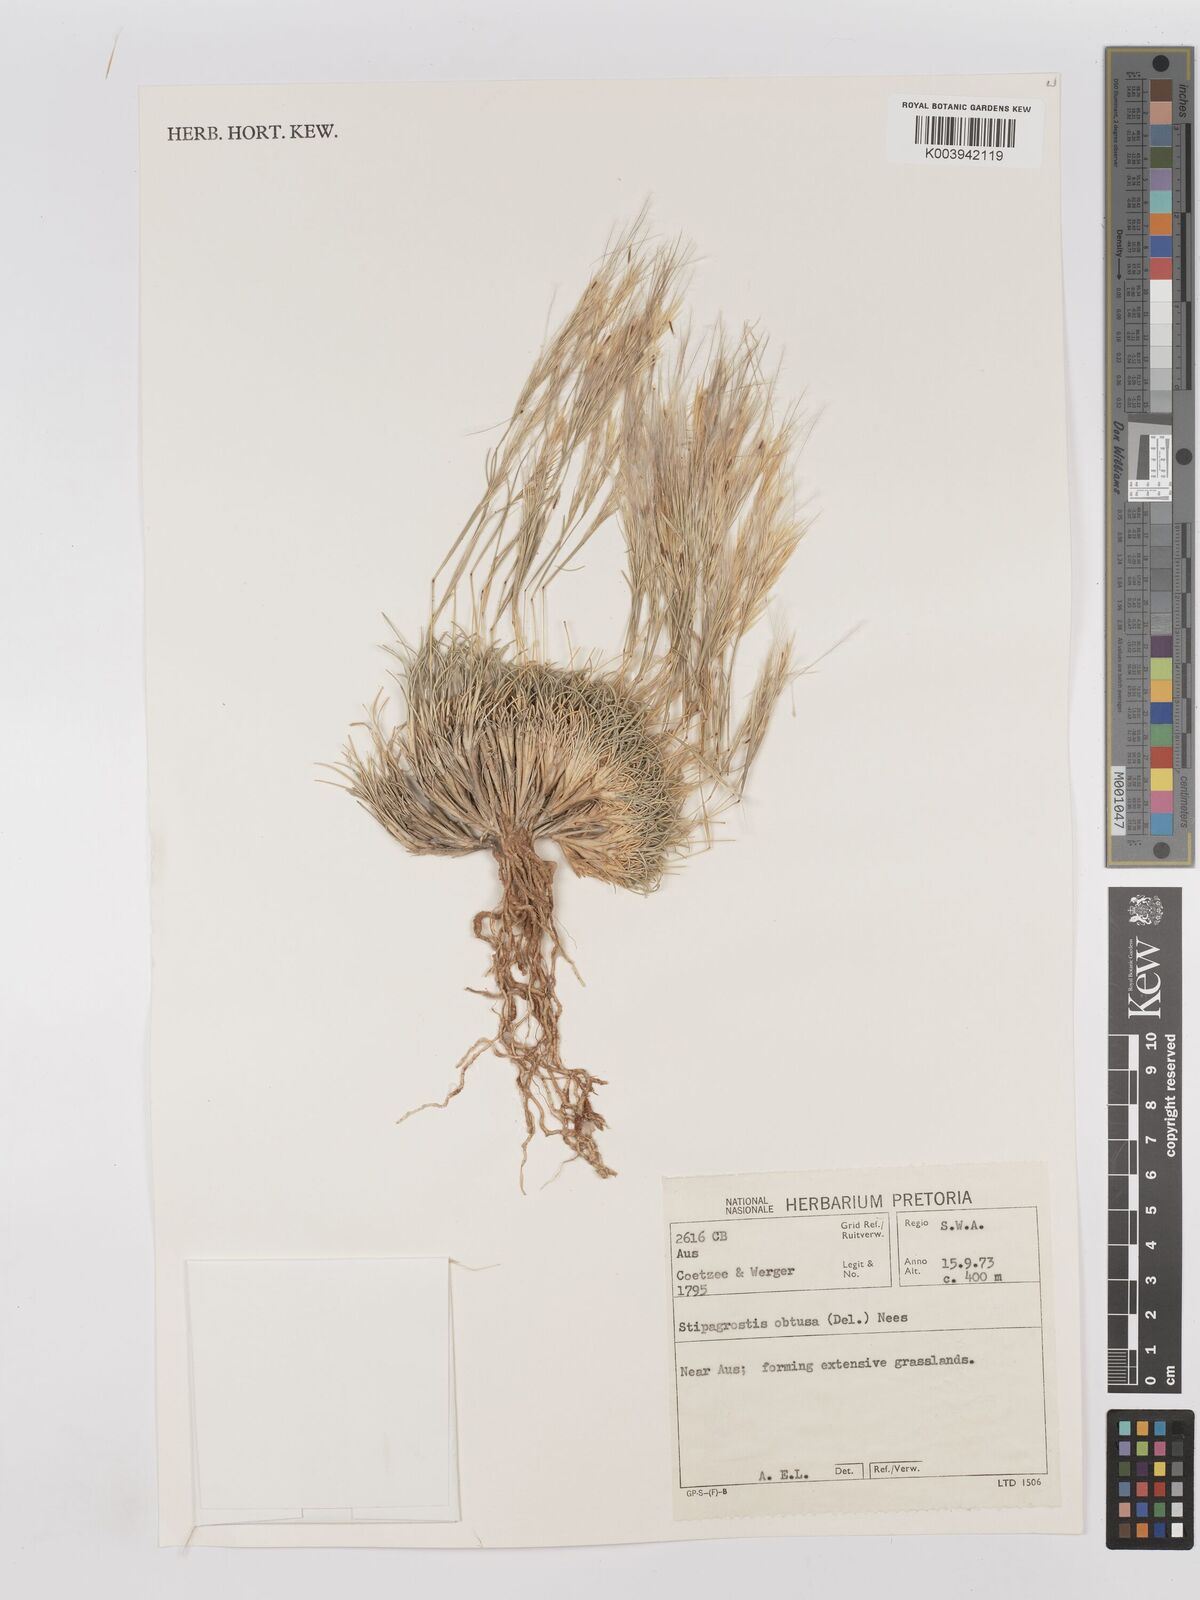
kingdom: Plantae
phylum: Tracheophyta
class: Liliopsida
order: Poales
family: Poaceae
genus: Stipagrostis
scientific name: Stipagrostis obtusa
